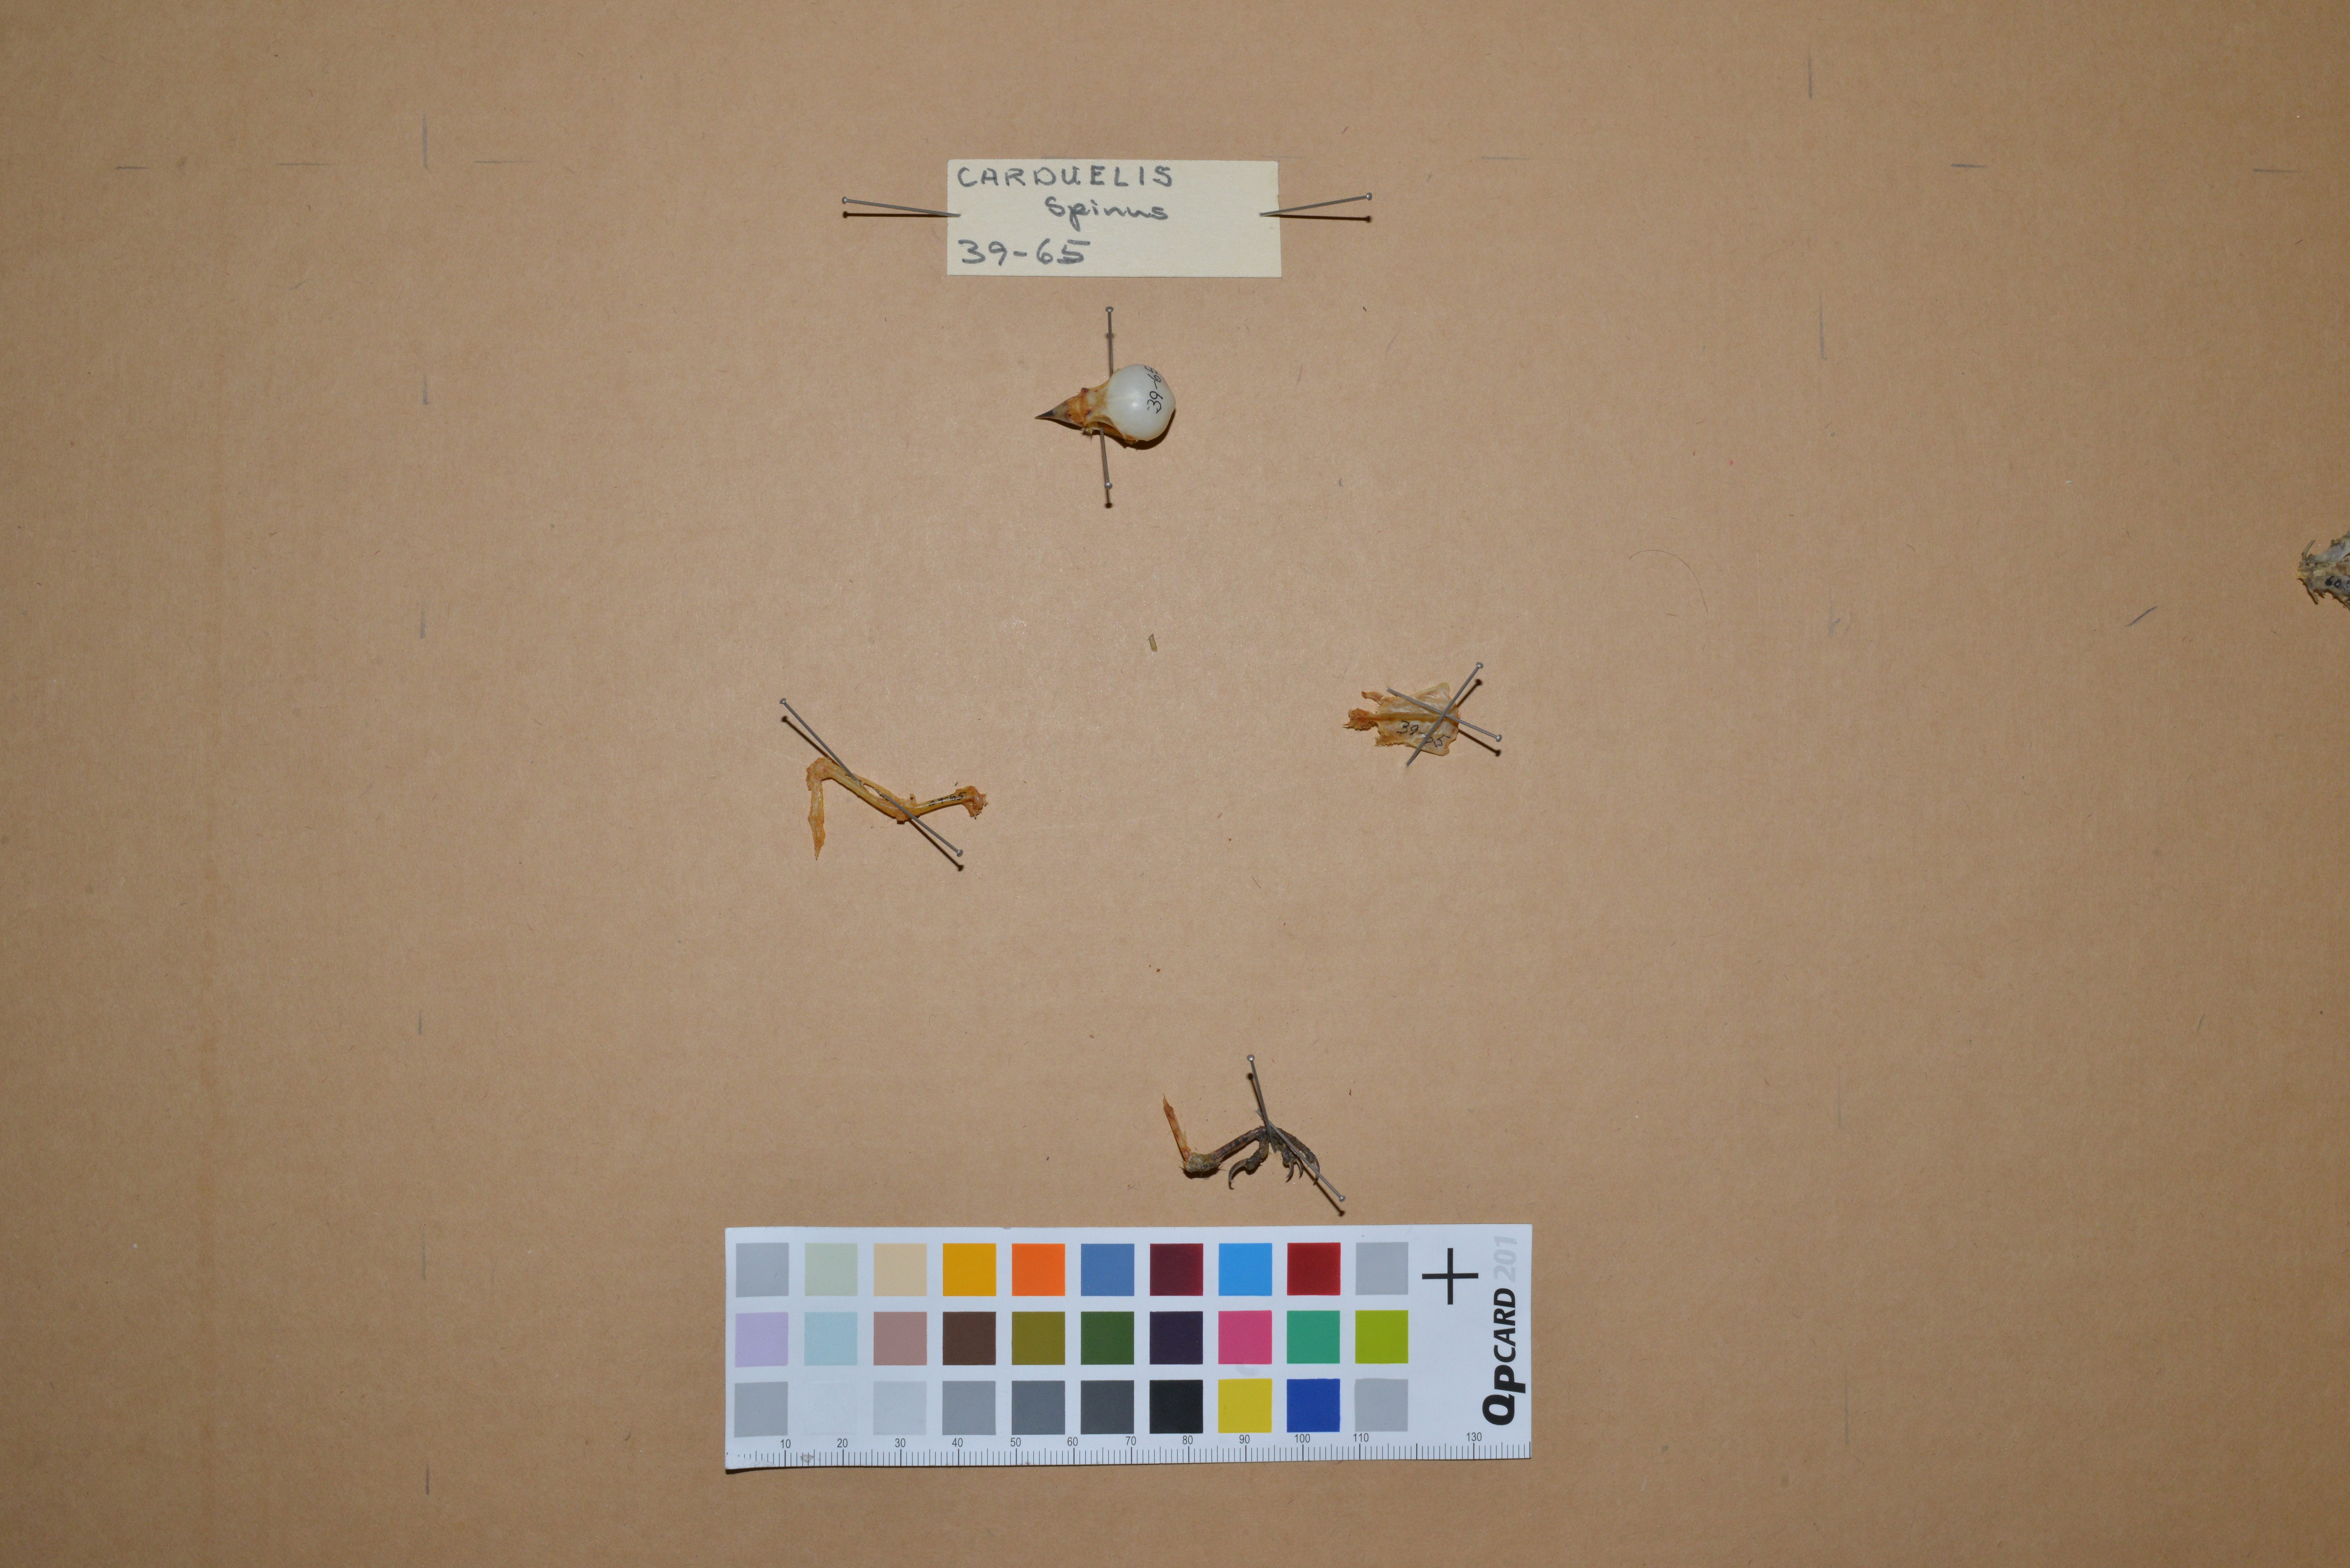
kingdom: Animalia
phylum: Chordata
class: Aves
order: Passeriformes
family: Fringillidae
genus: Spinus
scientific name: Spinus spinus
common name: Eurasian siskin
